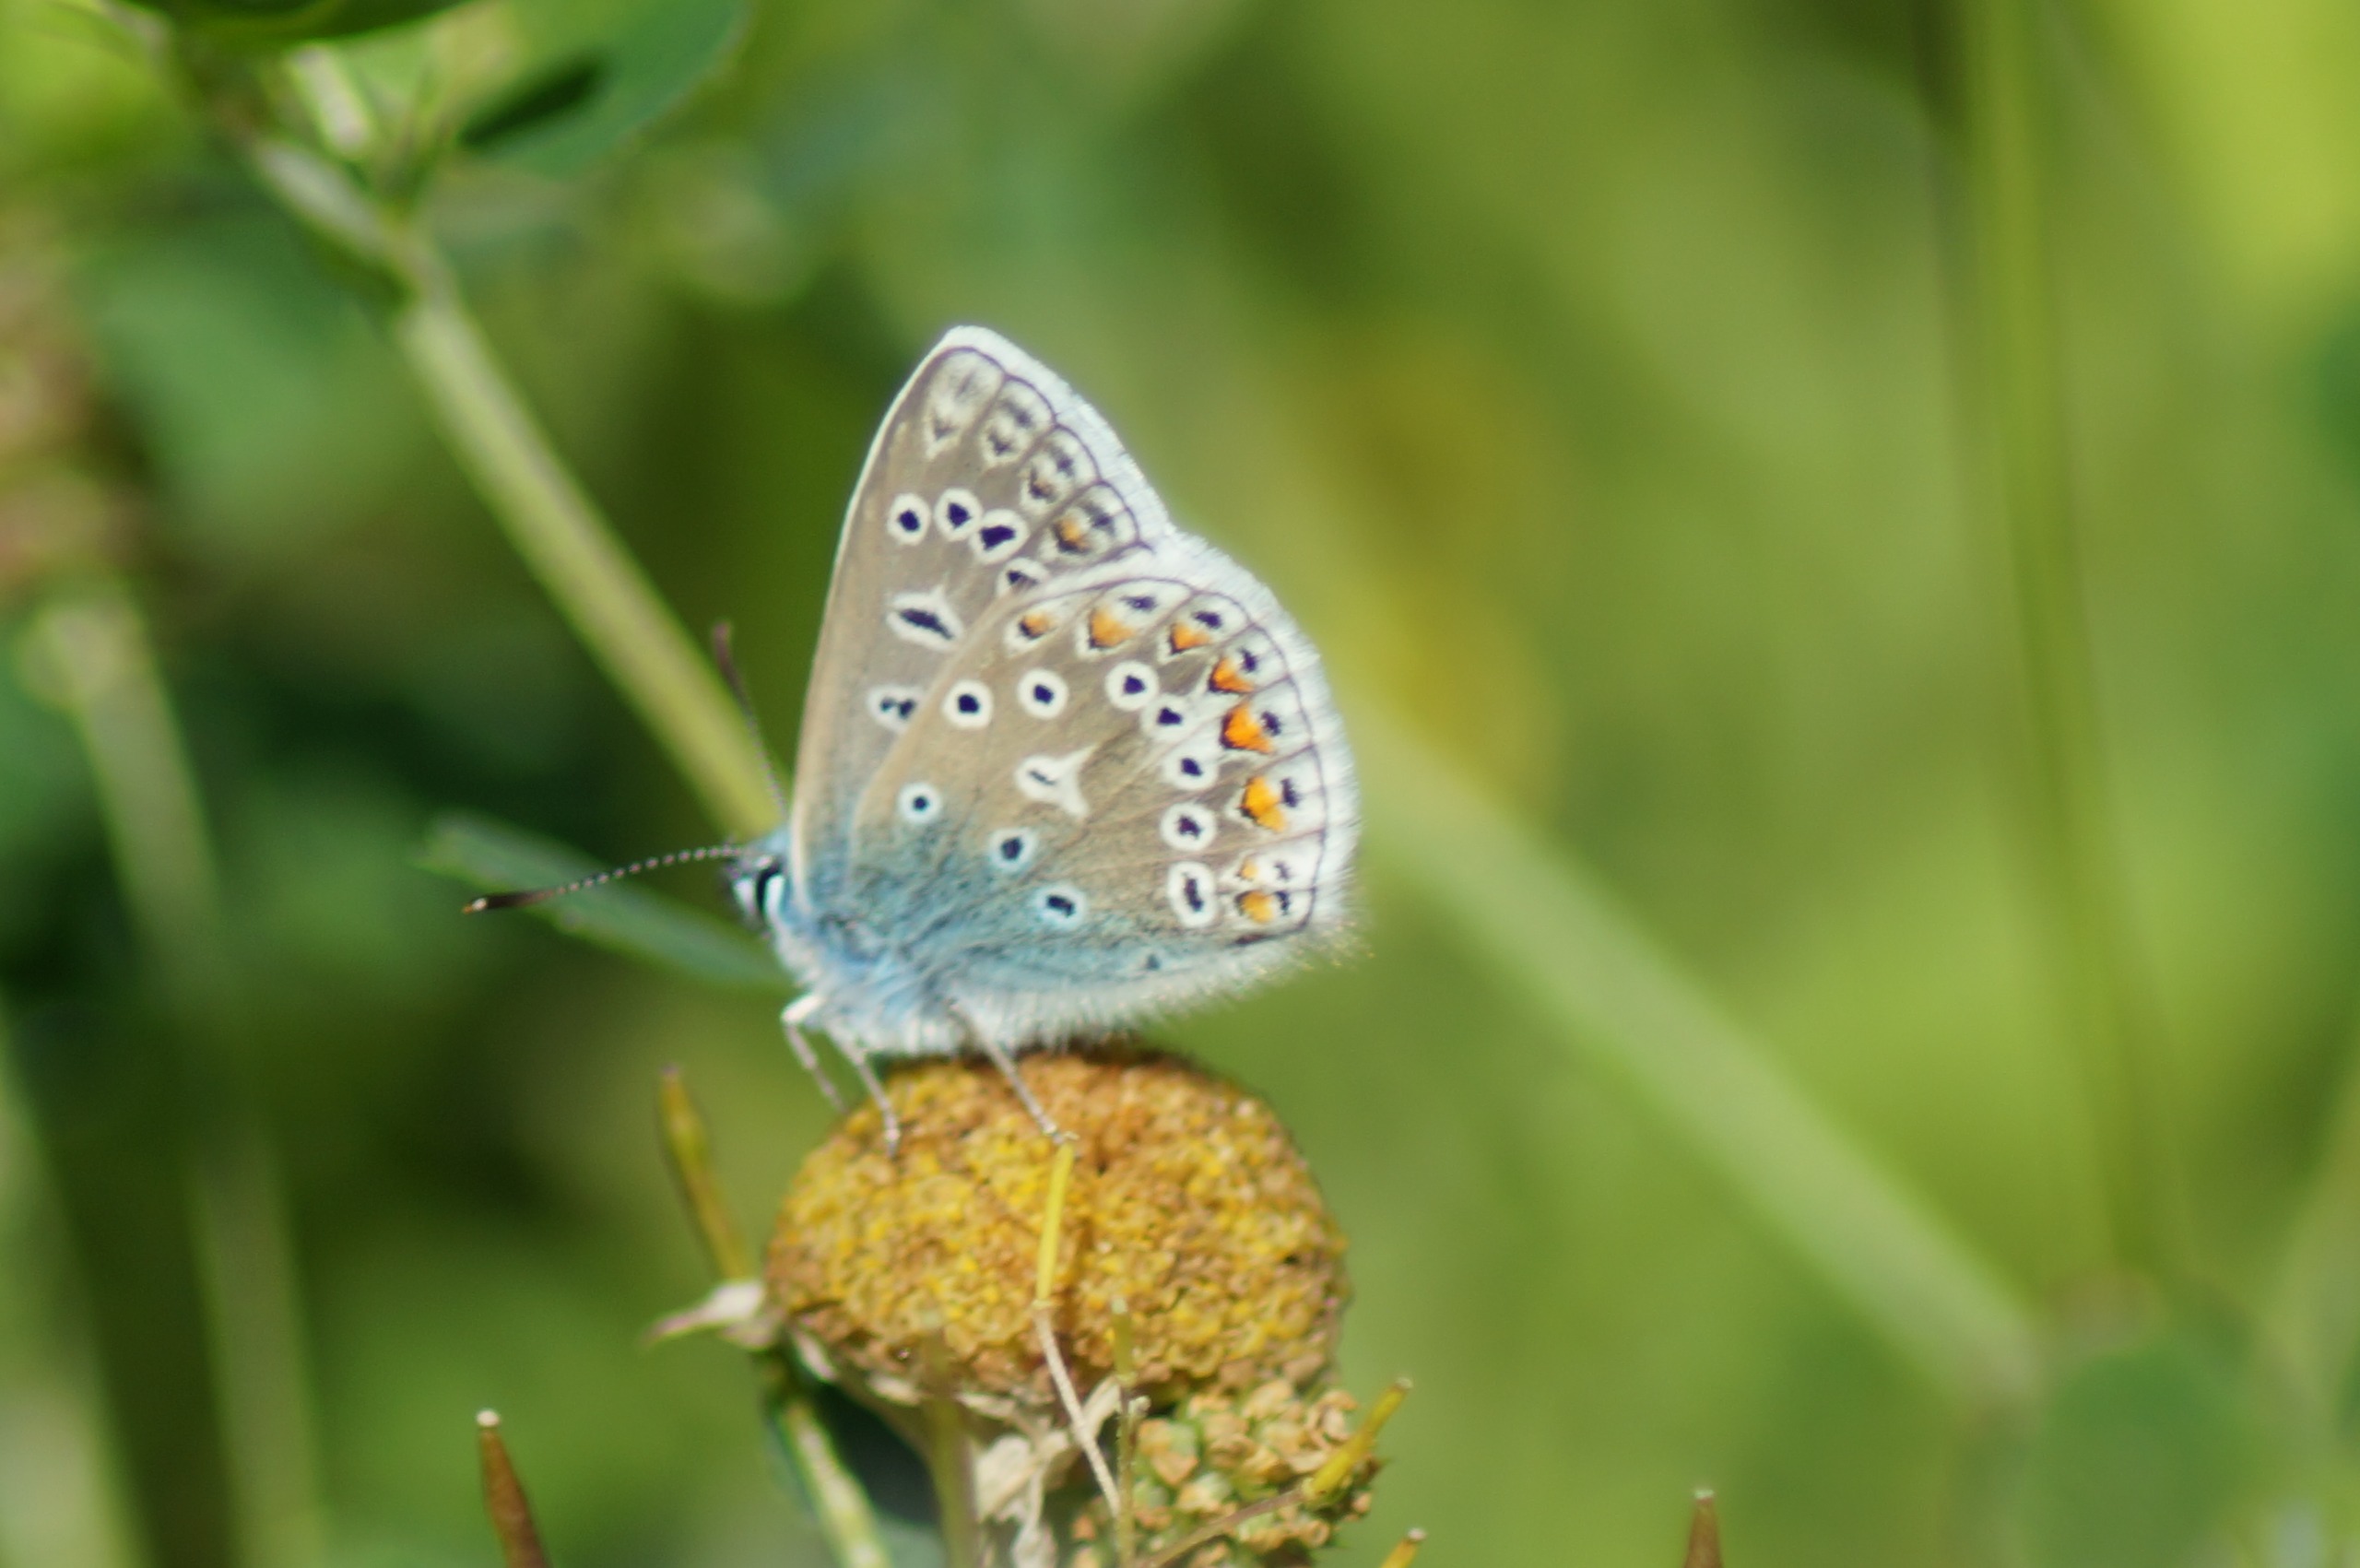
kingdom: Animalia
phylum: Arthropoda
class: Insecta
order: Lepidoptera
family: Lycaenidae
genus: Polyommatus
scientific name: Polyommatus icarus
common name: Almindelig blåfugl
